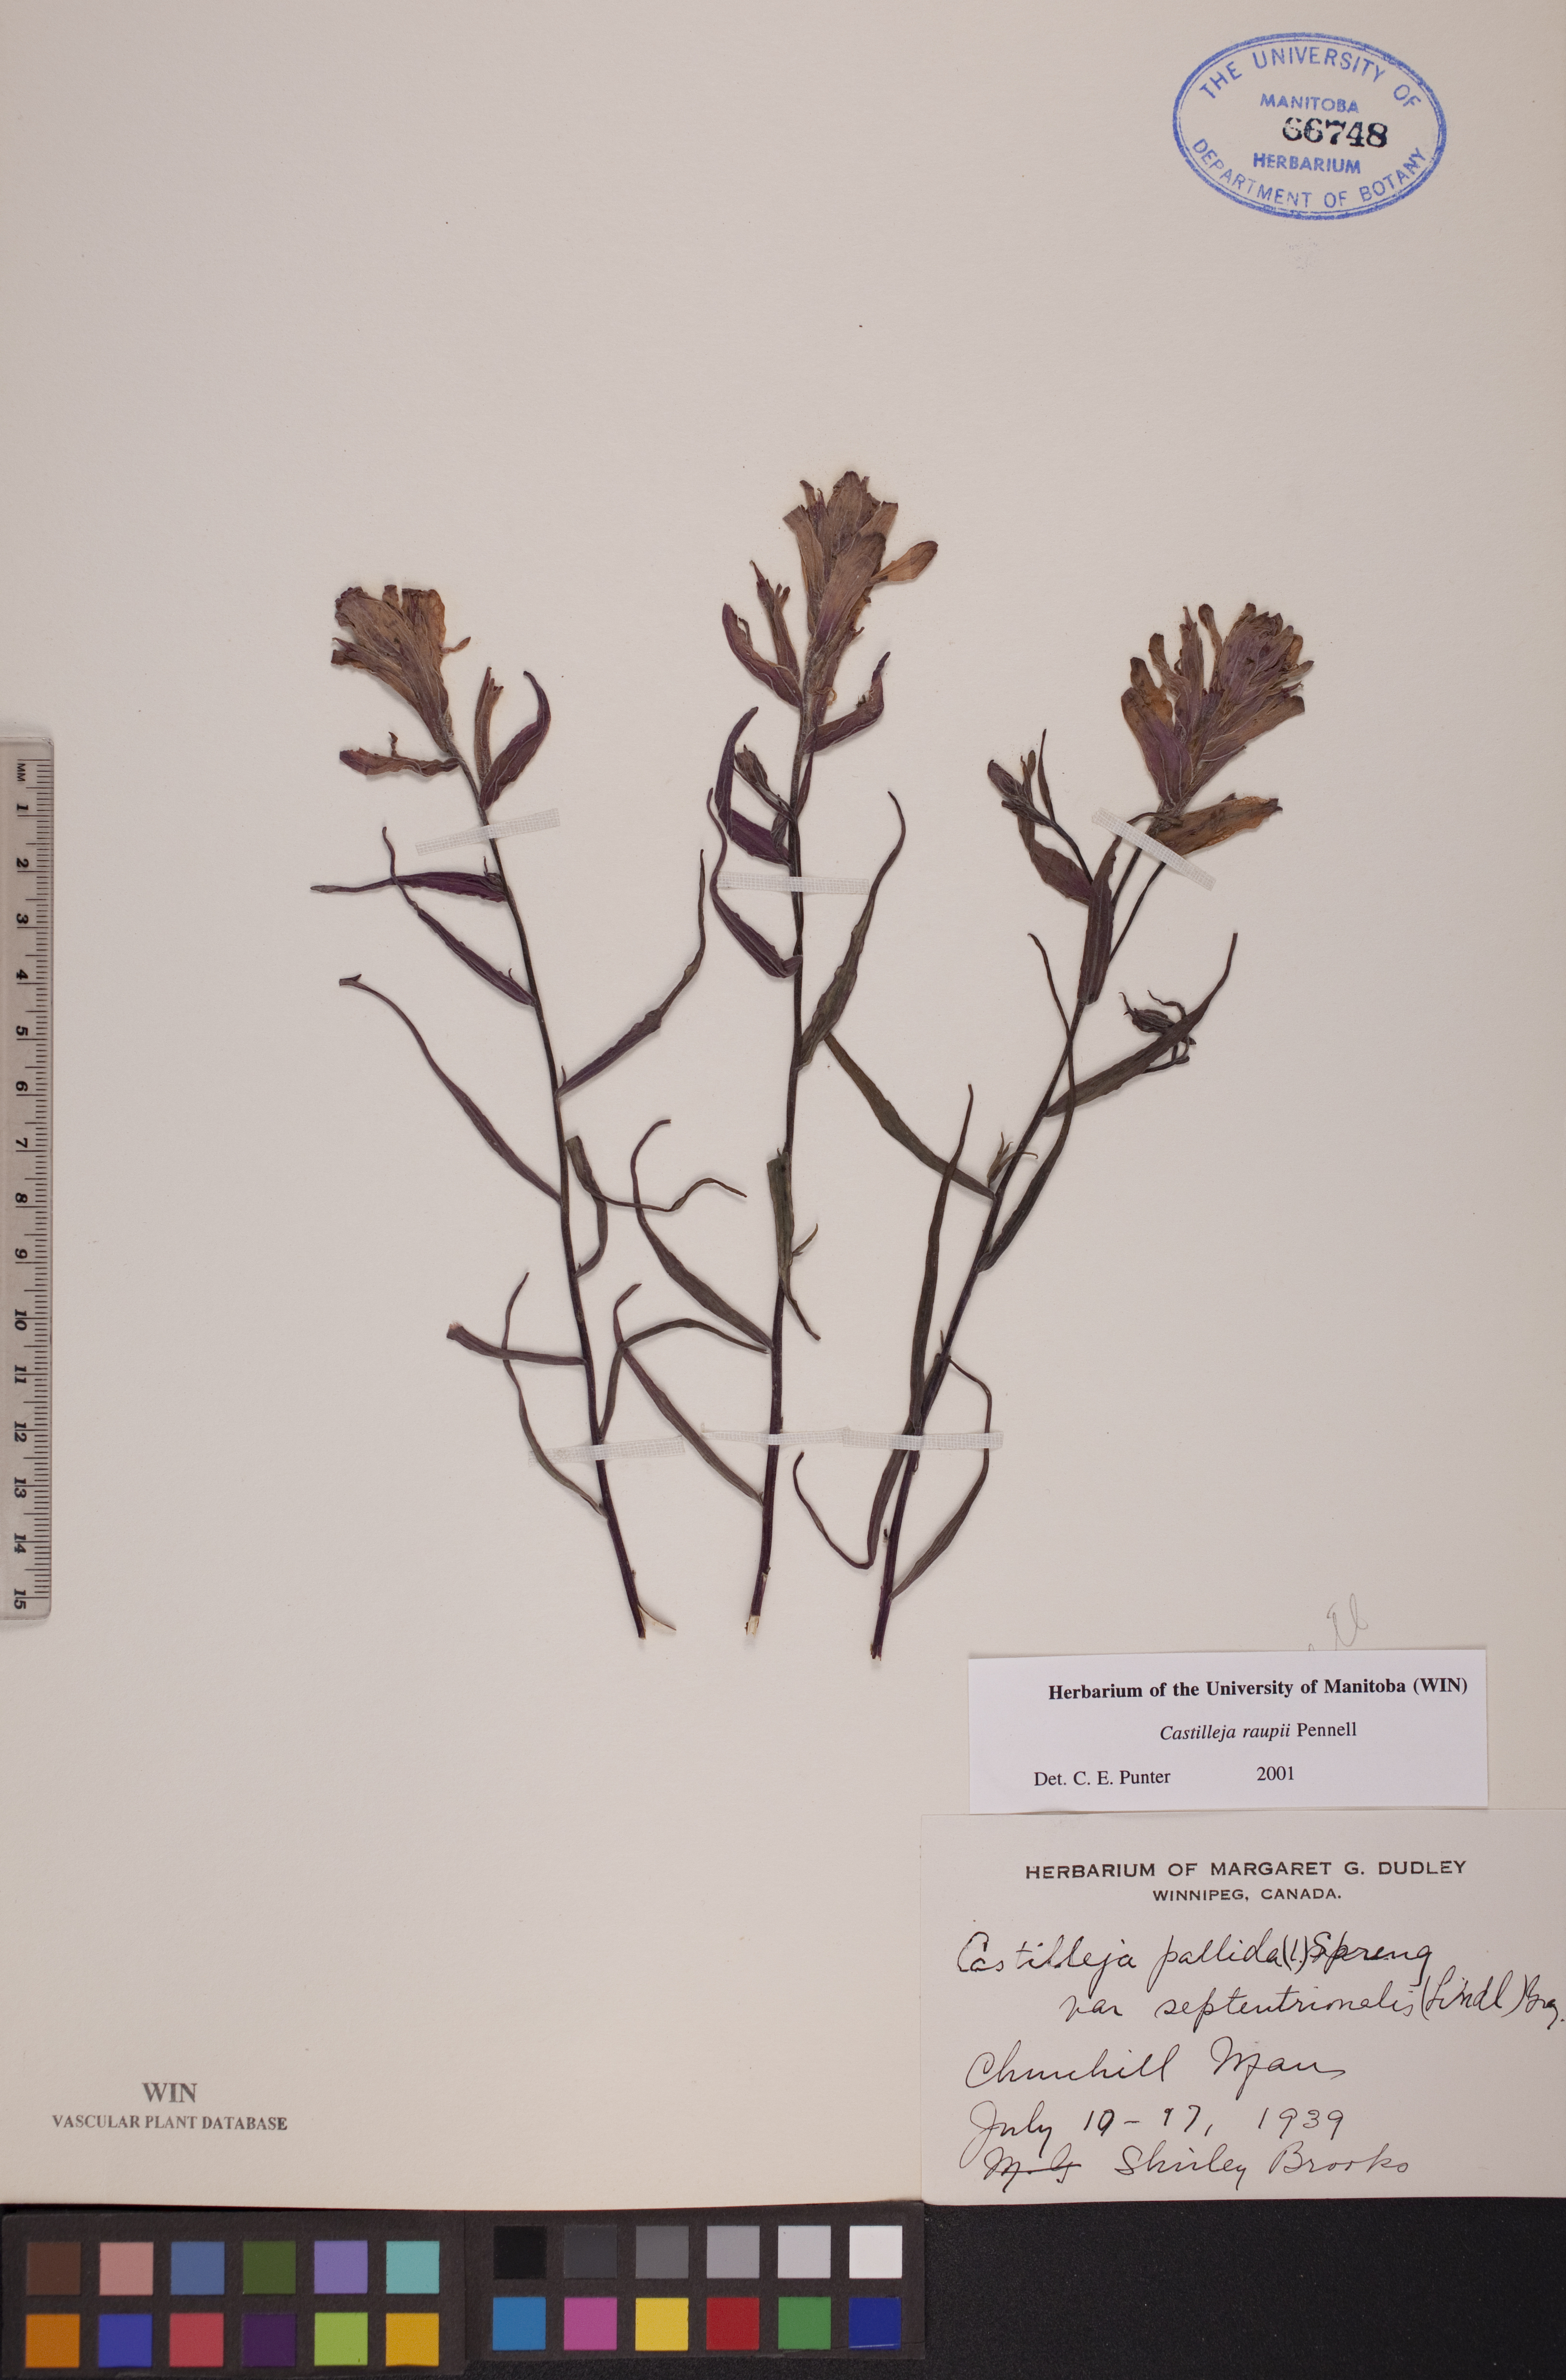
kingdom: Plantae
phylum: Tracheophyta
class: Magnoliopsida
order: Lamiales
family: Orobanchaceae
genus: Castilleja
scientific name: Castilleja raupii
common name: Raup's paintbrush
